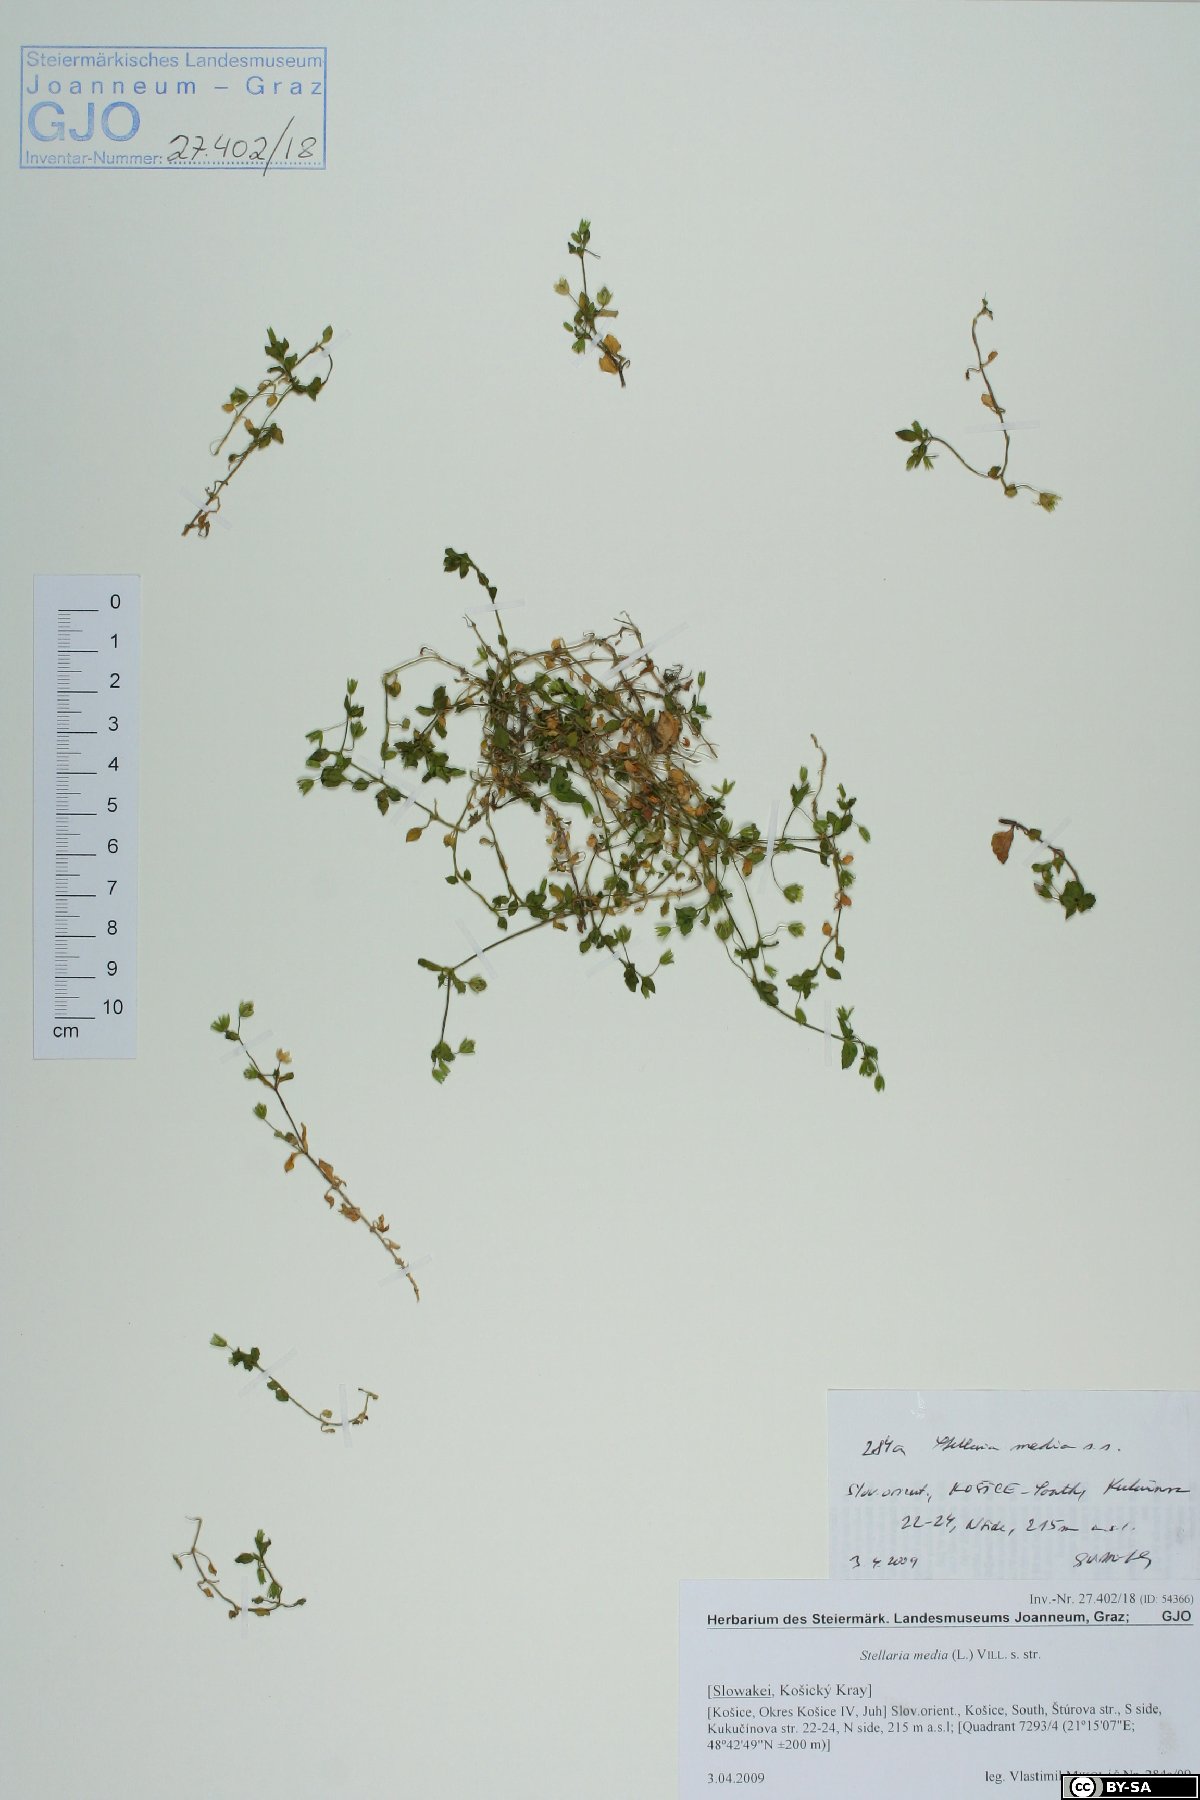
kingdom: Plantae
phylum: Tracheophyta
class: Magnoliopsida
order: Caryophyllales
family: Caryophyllaceae
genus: Stellaria
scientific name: Stellaria media
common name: Common chickweed
